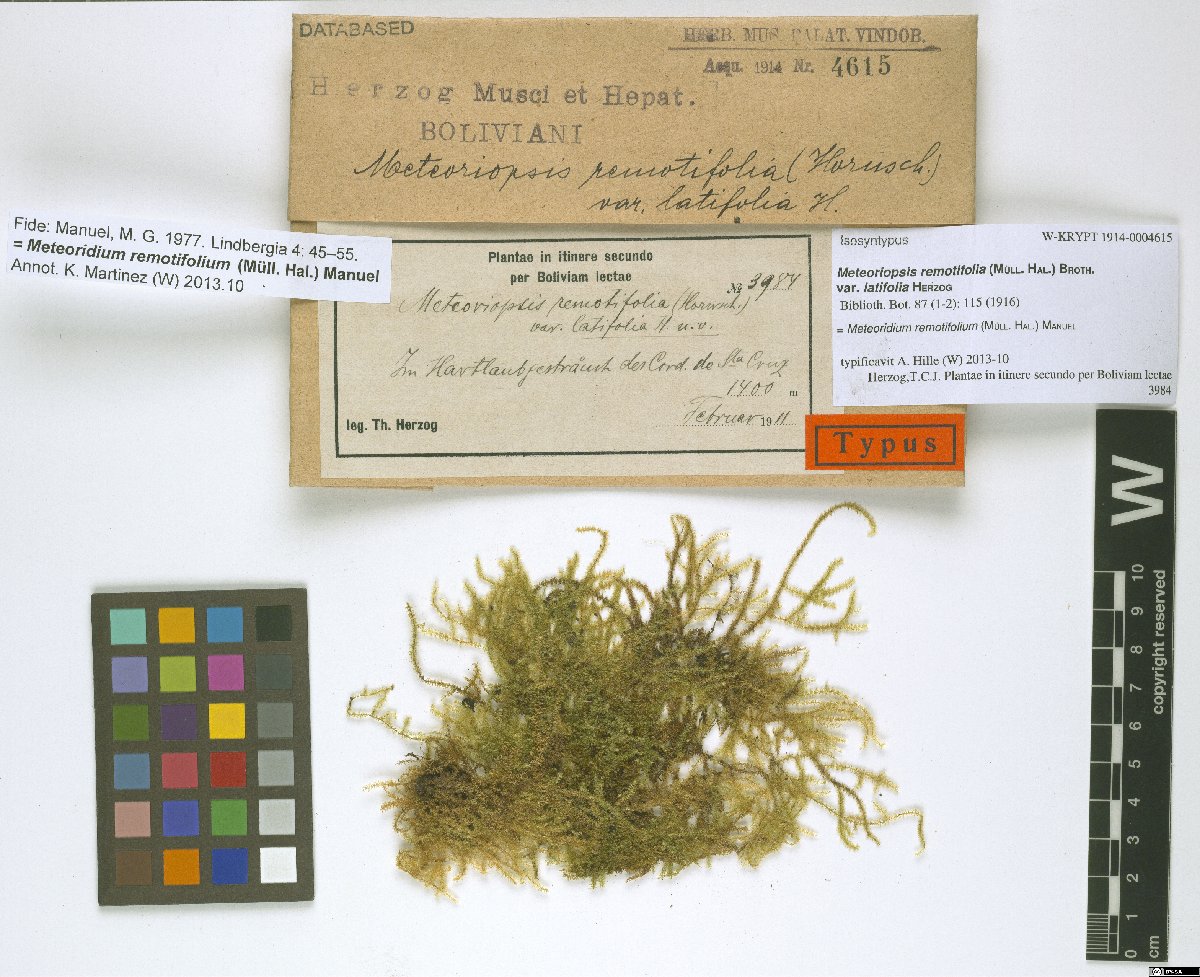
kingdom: Plantae
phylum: Bryophyta
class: Bryopsida
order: Hypnales
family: Brachytheciaceae
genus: Meteoridium
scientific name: Meteoridium remotifolium
